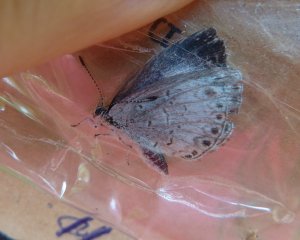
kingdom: Animalia
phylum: Arthropoda
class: Insecta
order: Lepidoptera
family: Lycaenidae
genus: Celastrina
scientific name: Celastrina
